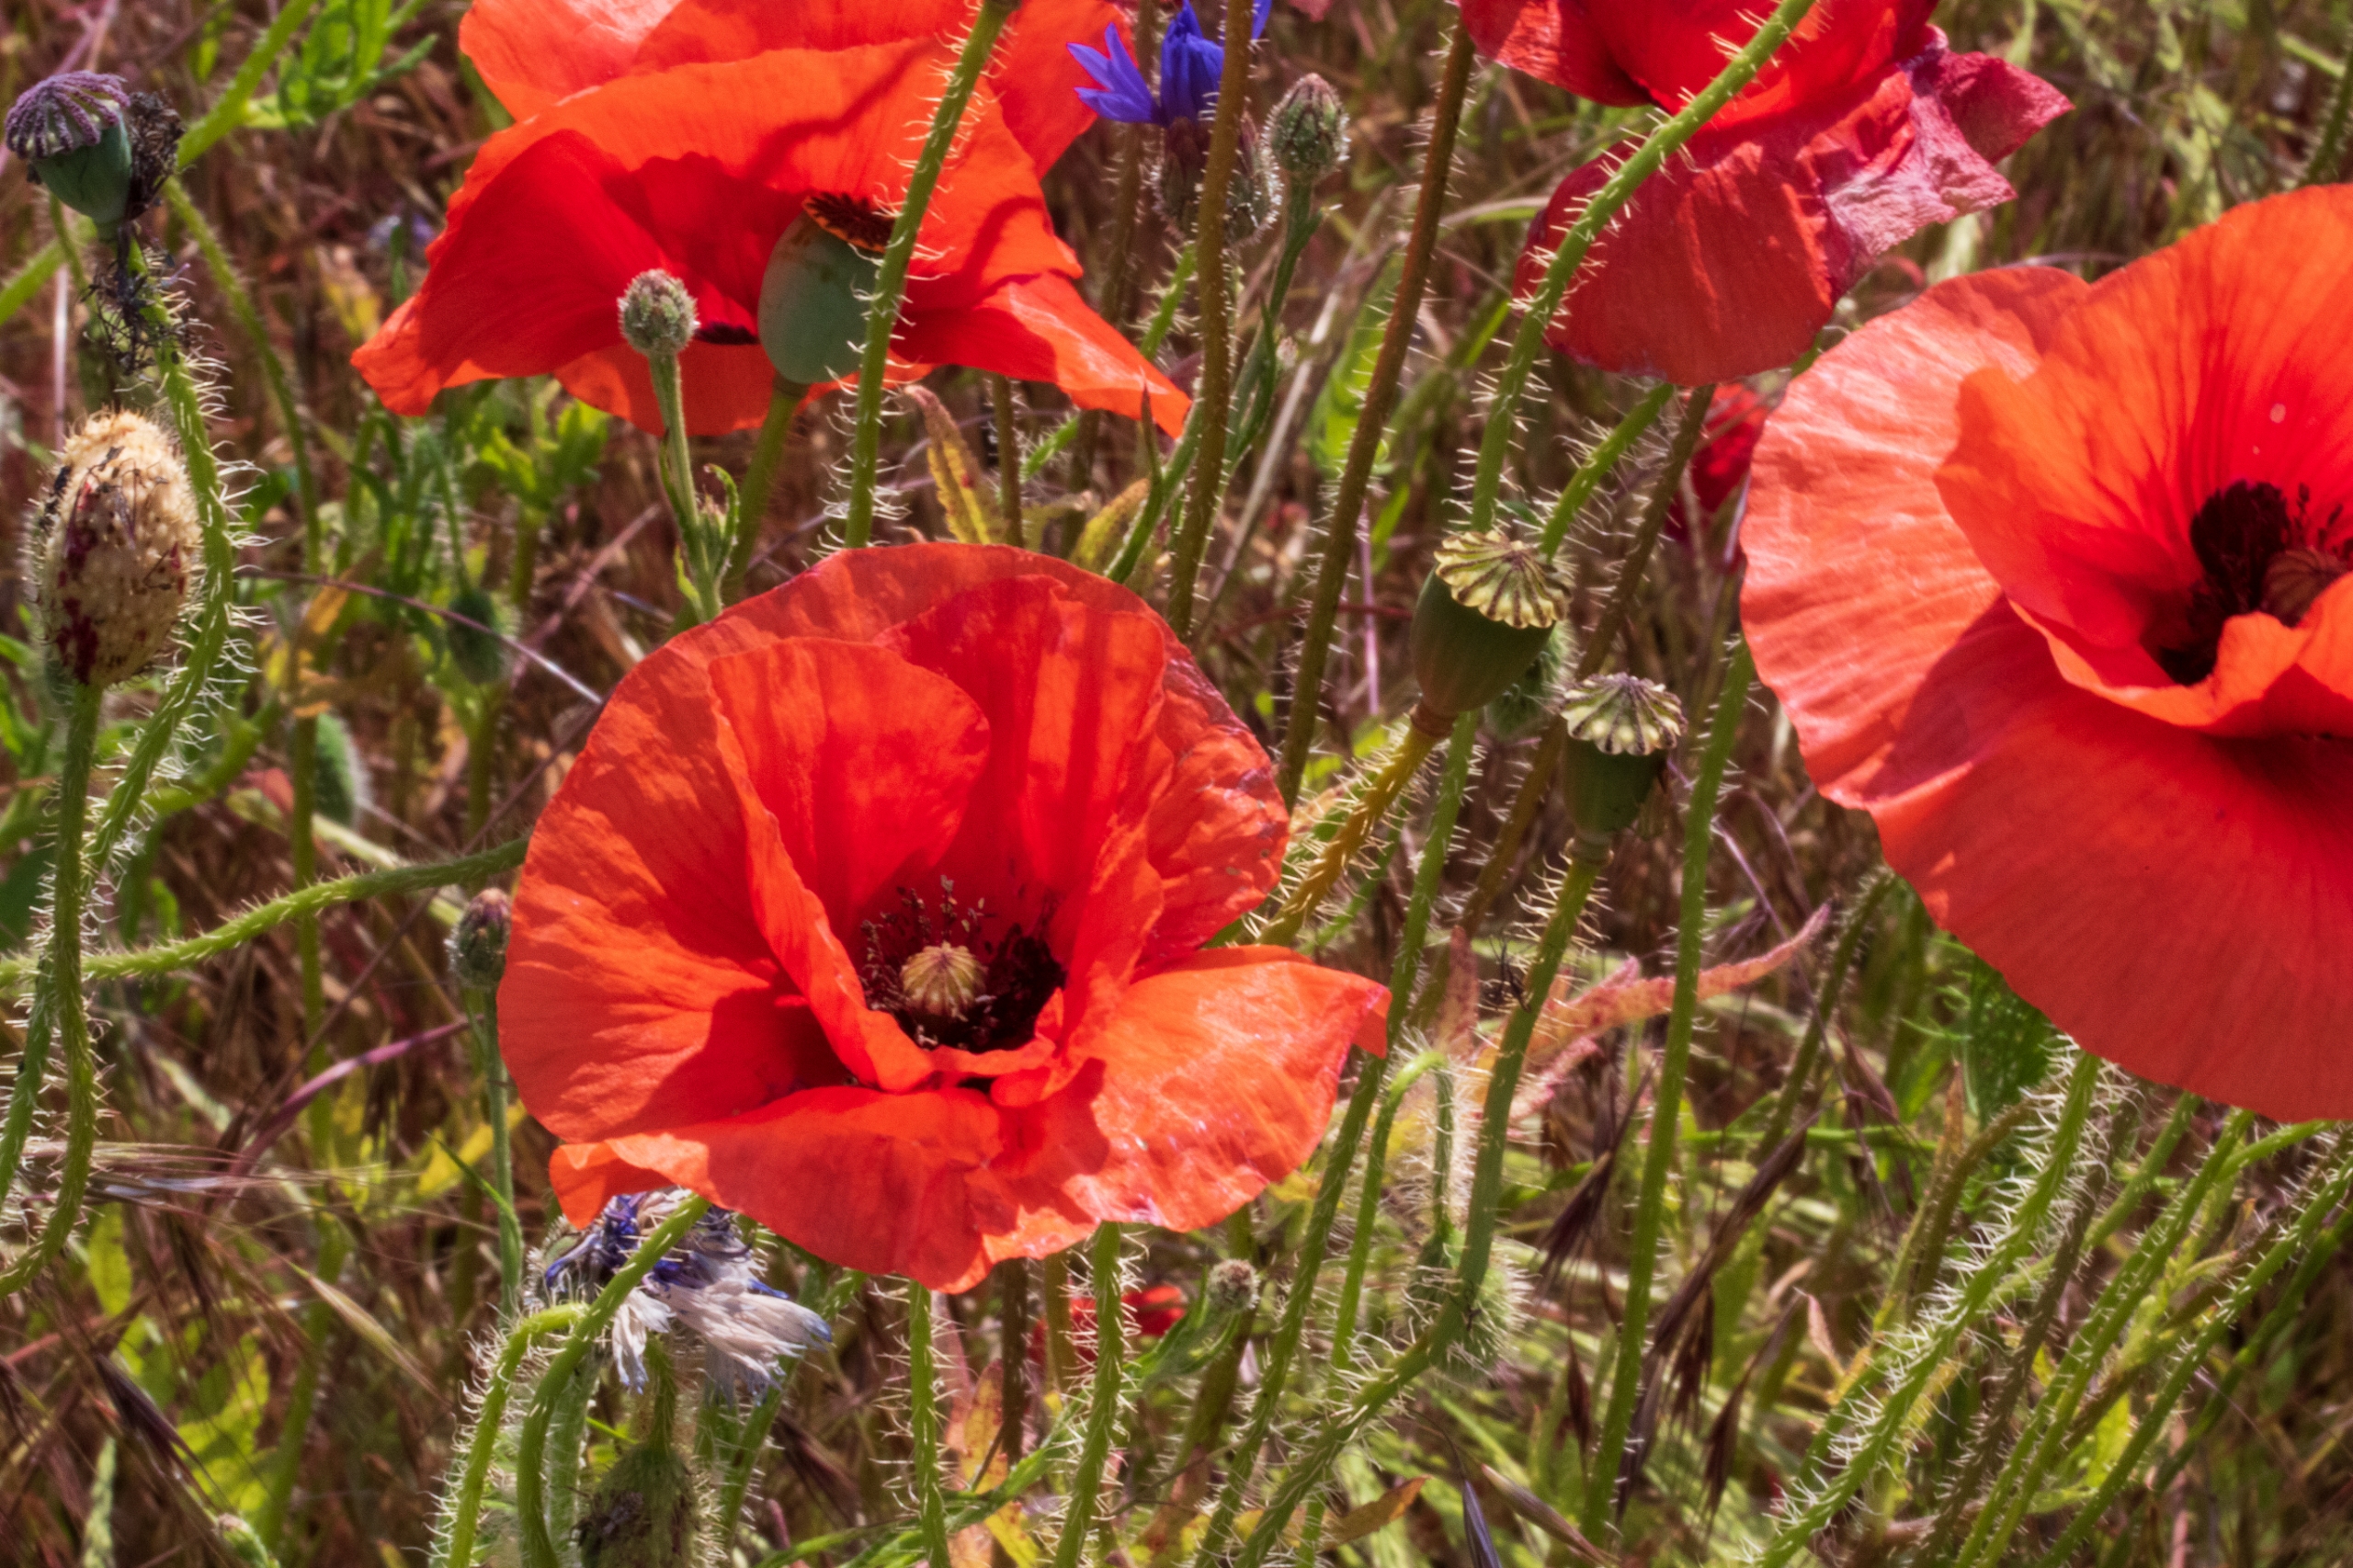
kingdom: Plantae
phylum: Tracheophyta
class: Magnoliopsida
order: Ranunculales
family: Papaveraceae
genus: Papaver
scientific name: Papaver rhoeas
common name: Korn-valmue
